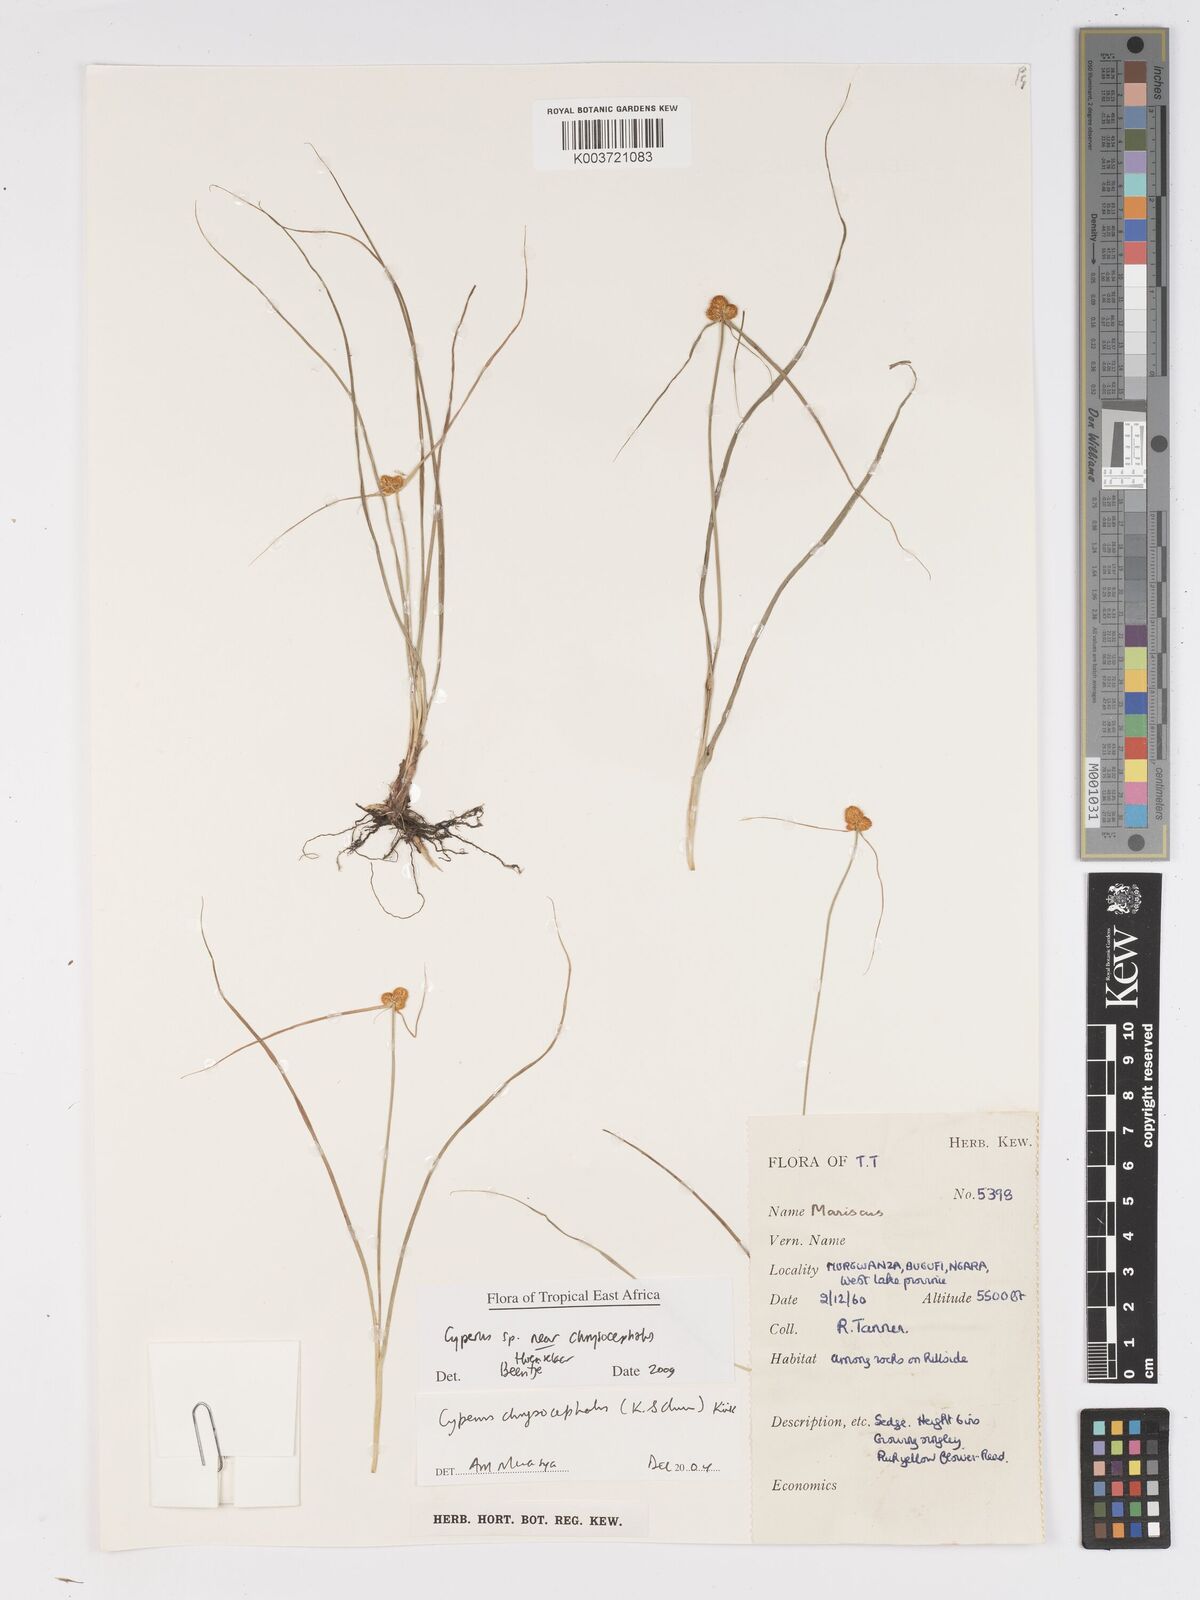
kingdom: Plantae
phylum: Tracheophyta
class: Liliopsida
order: Poales
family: Cyperaceae
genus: Cyperus
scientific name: Cyperus chrysocephalus
